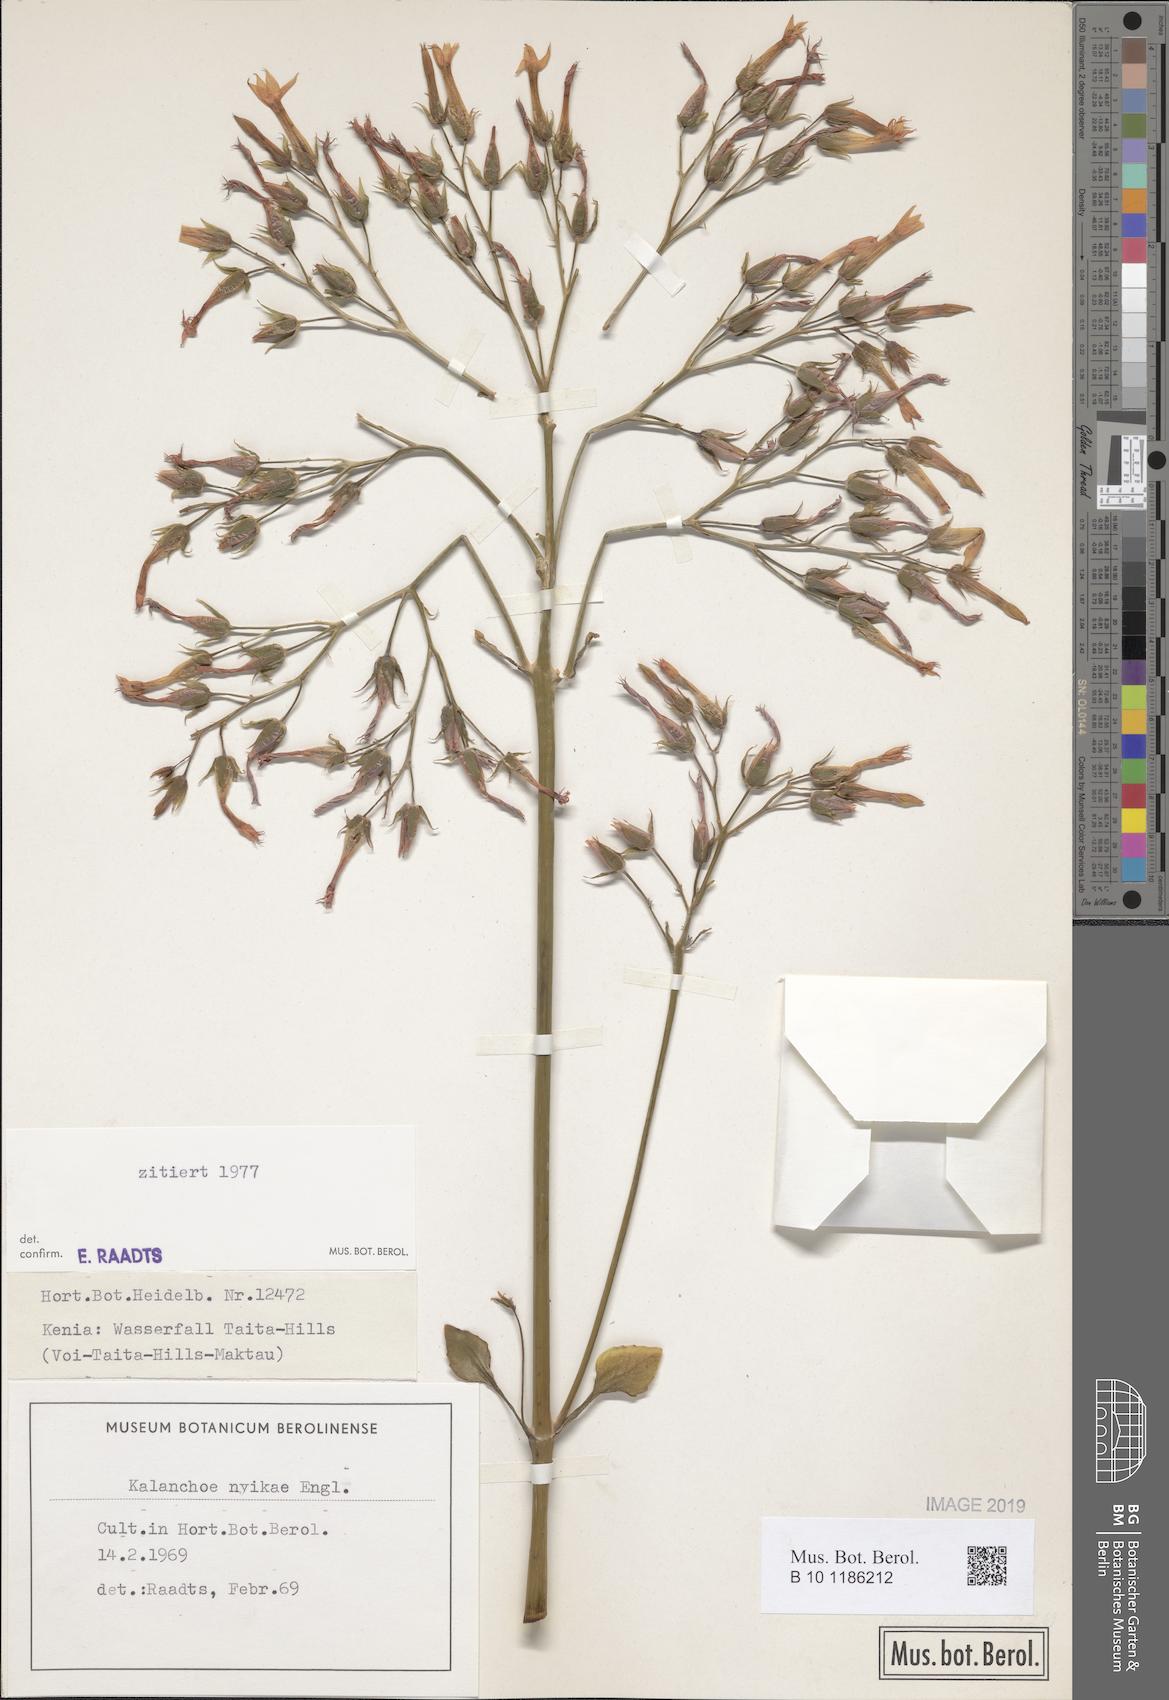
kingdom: Plantae
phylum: Tracheophyta
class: Magnoliopsida
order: Saxifragales
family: Crassulaceae
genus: Kalanchoe
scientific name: Kalanchoe nyikae
